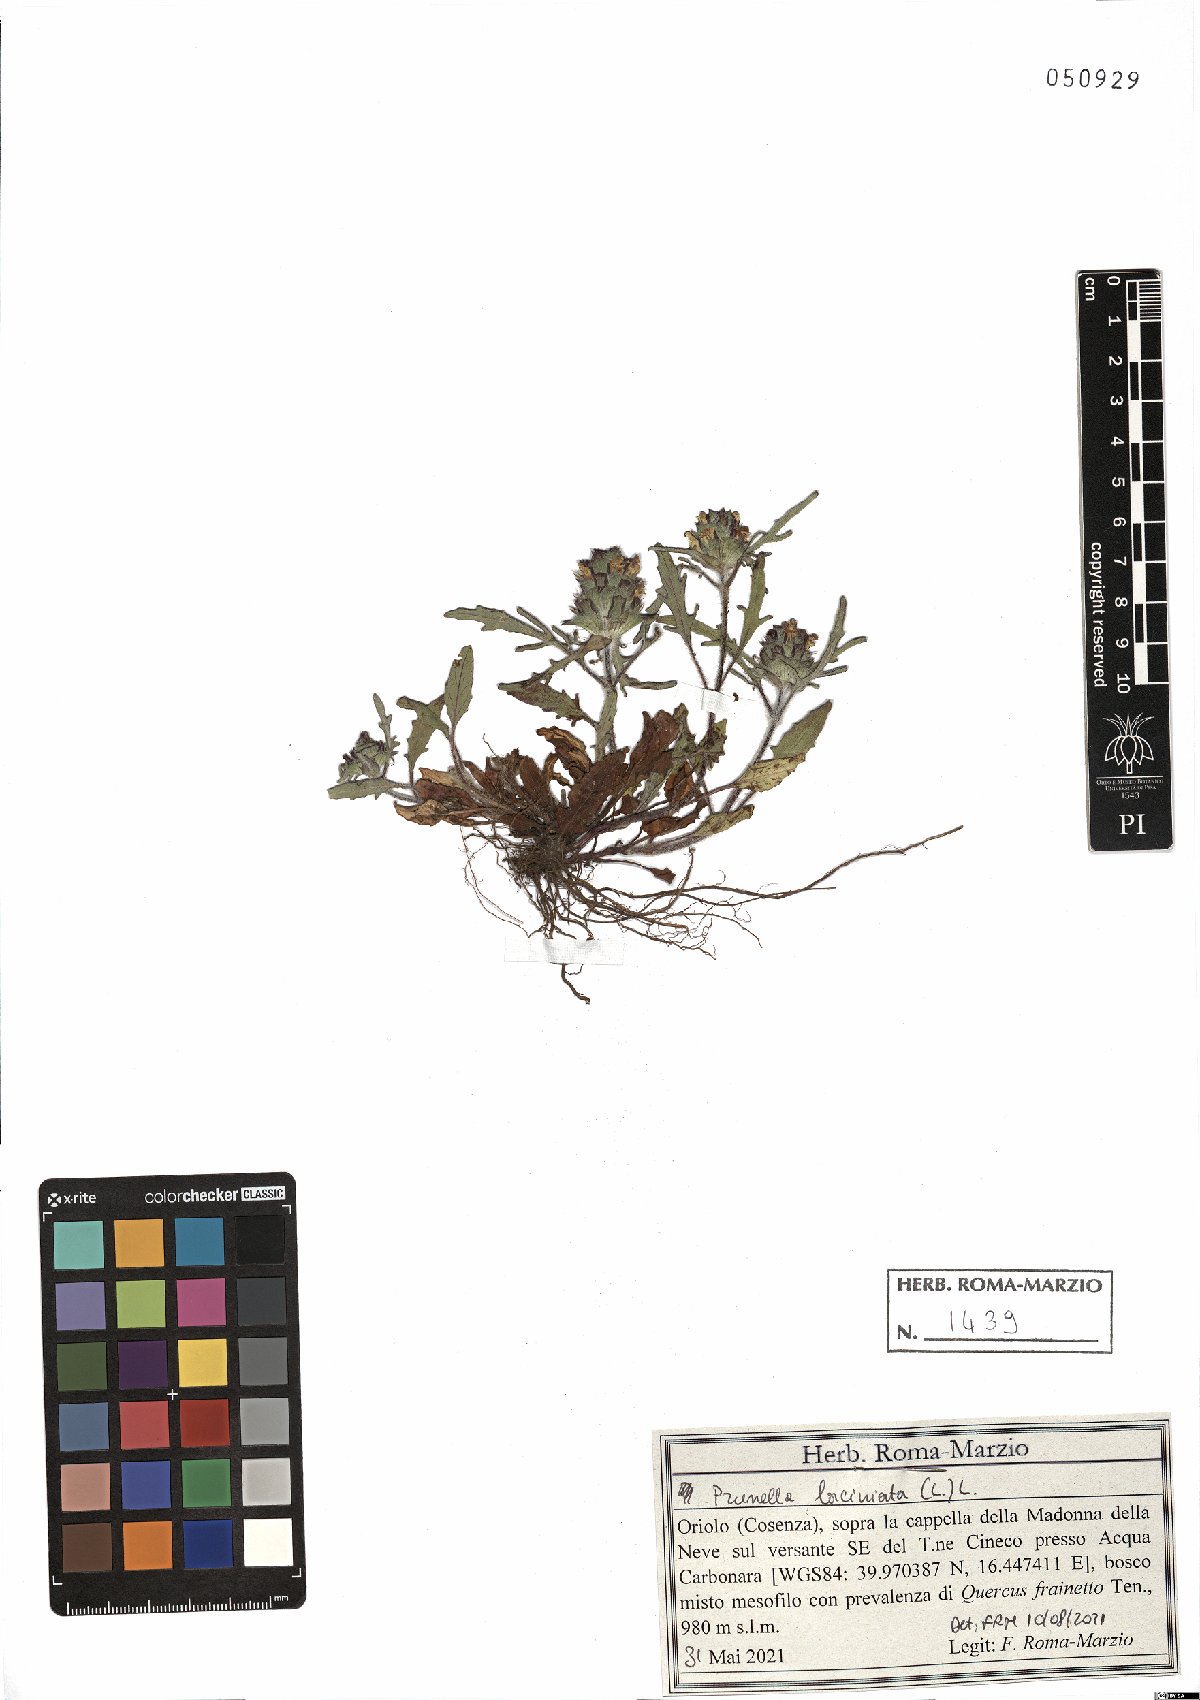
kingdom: Plantae
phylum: Tracheophyta
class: Magnoliopsida
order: Lamiales
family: Lamiaceae
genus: Prunella
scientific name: Prunella laciniata
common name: Cut-leaved selfheal
